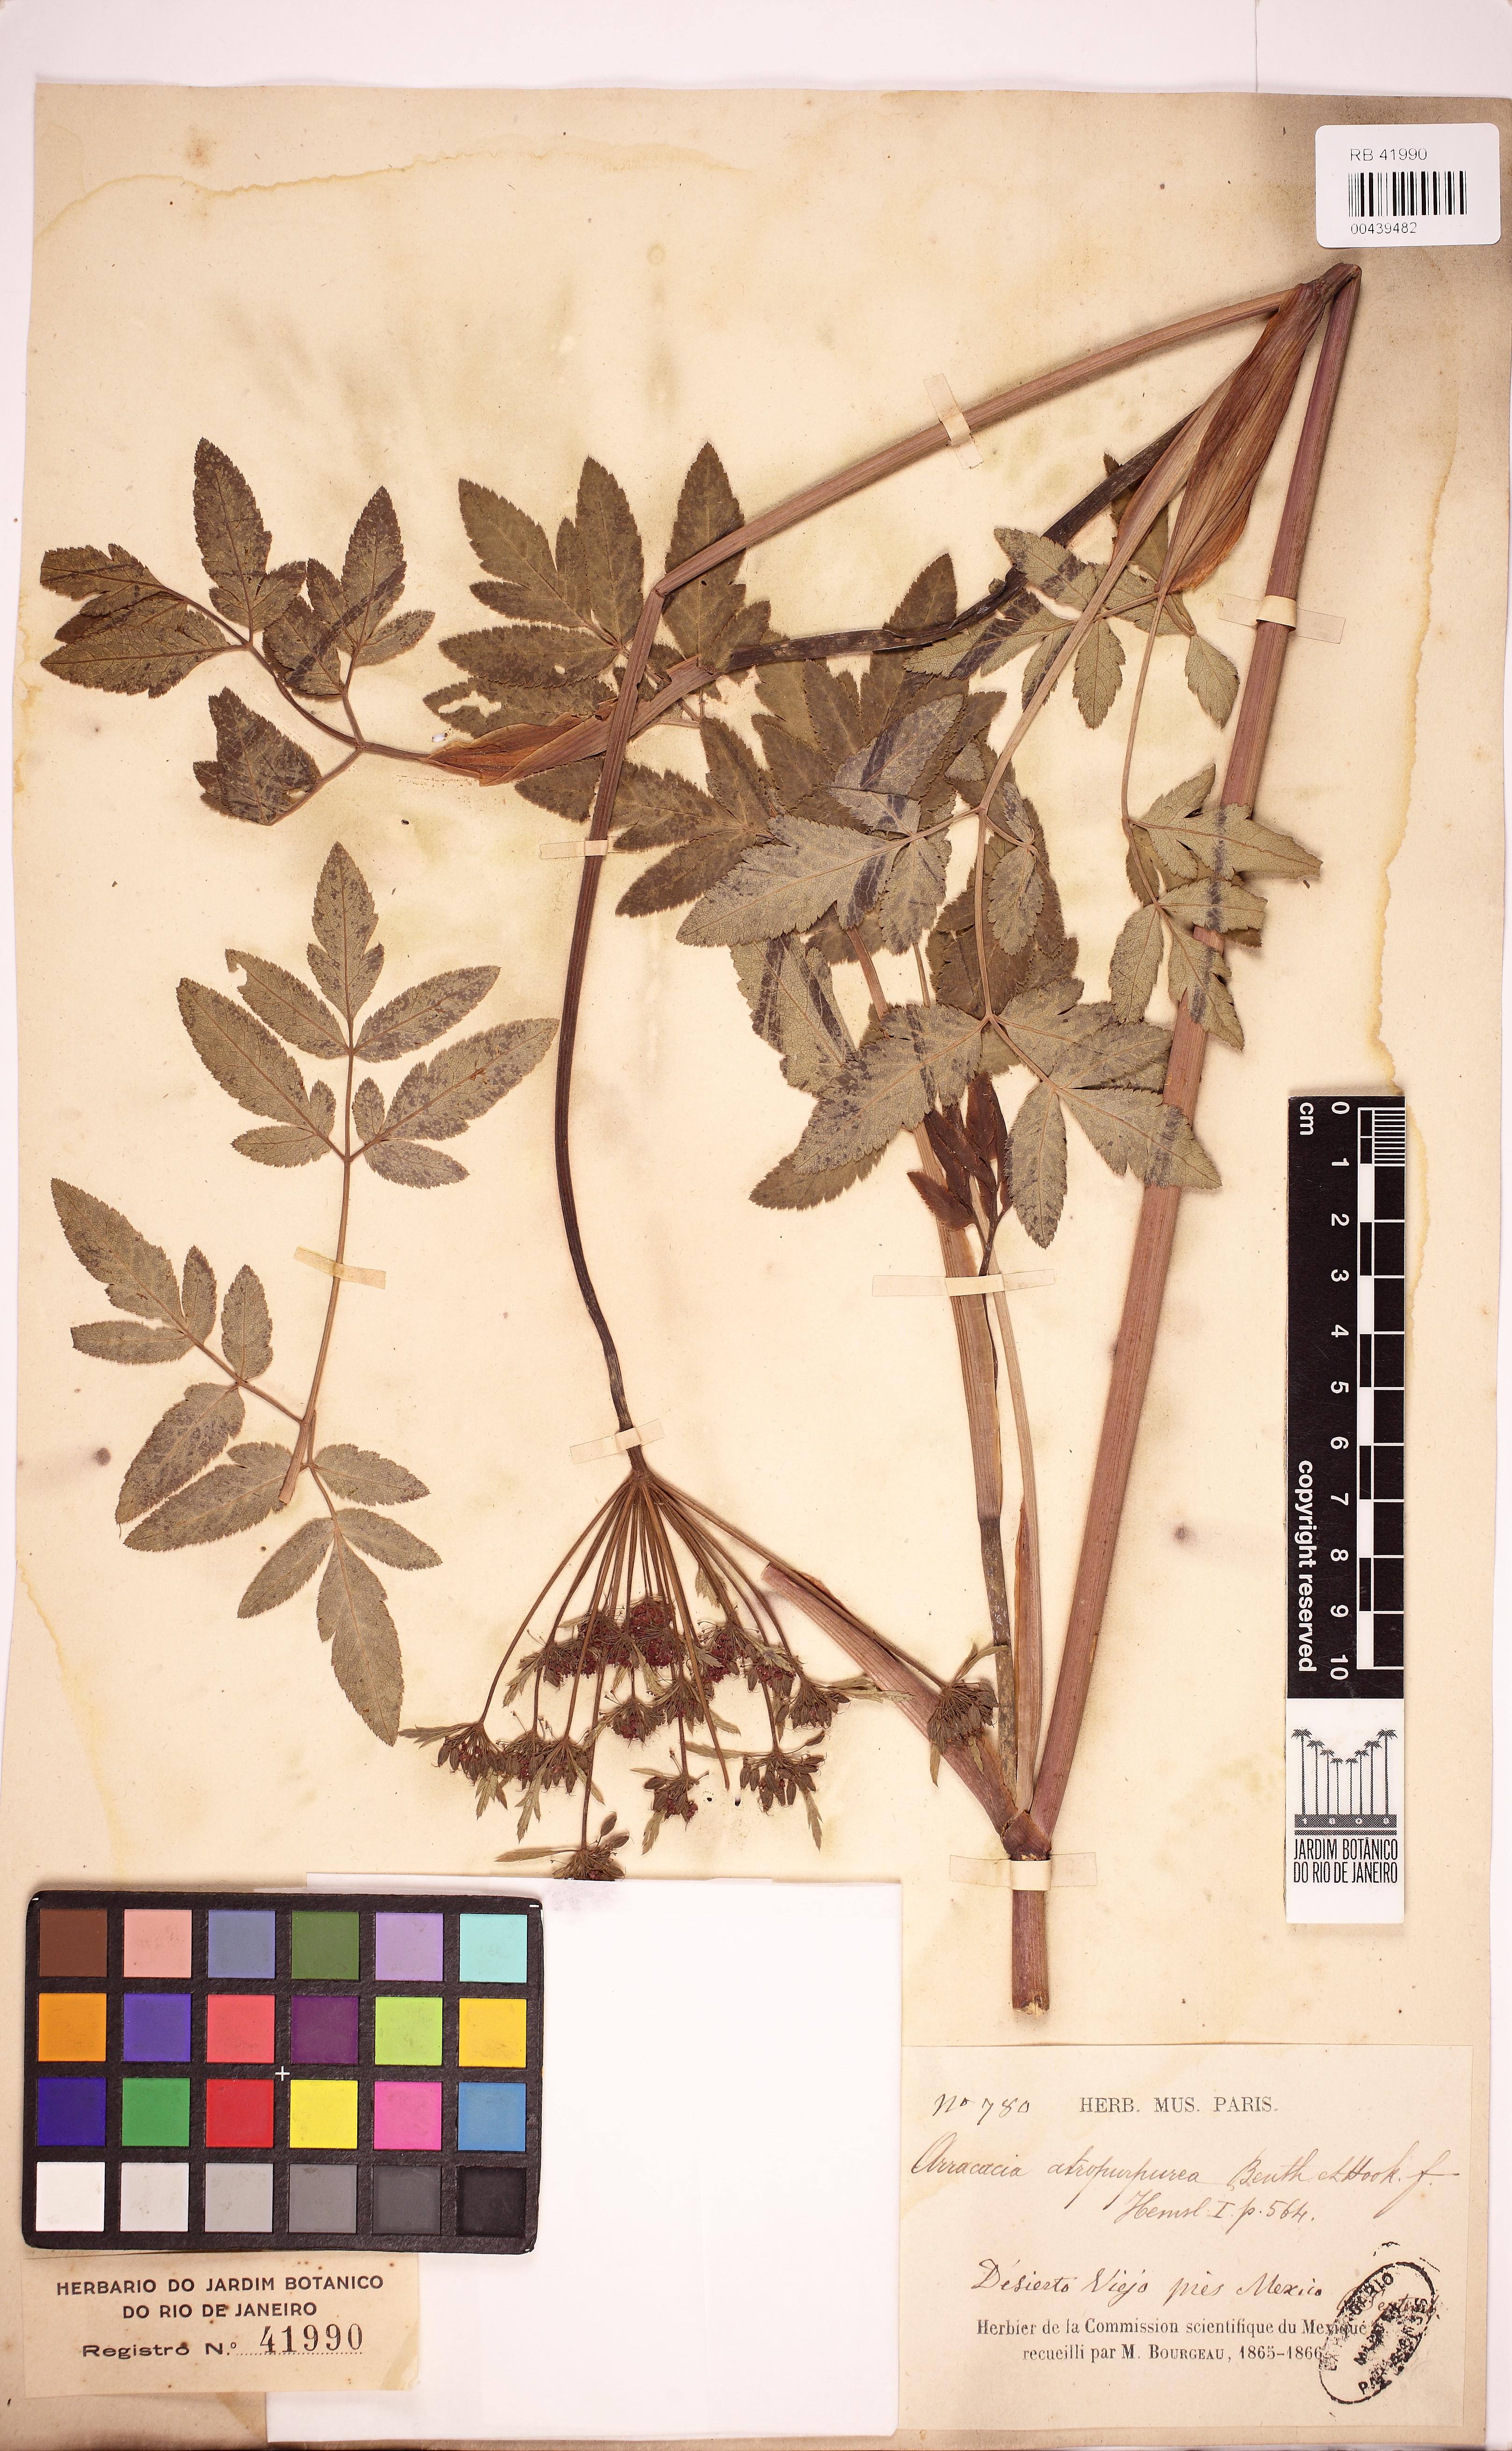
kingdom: Plantae
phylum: Tracheophyta
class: Magnoliopsida
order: Apiales
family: Apiaceae
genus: Arracacia
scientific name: Arracacia atropurpurea
